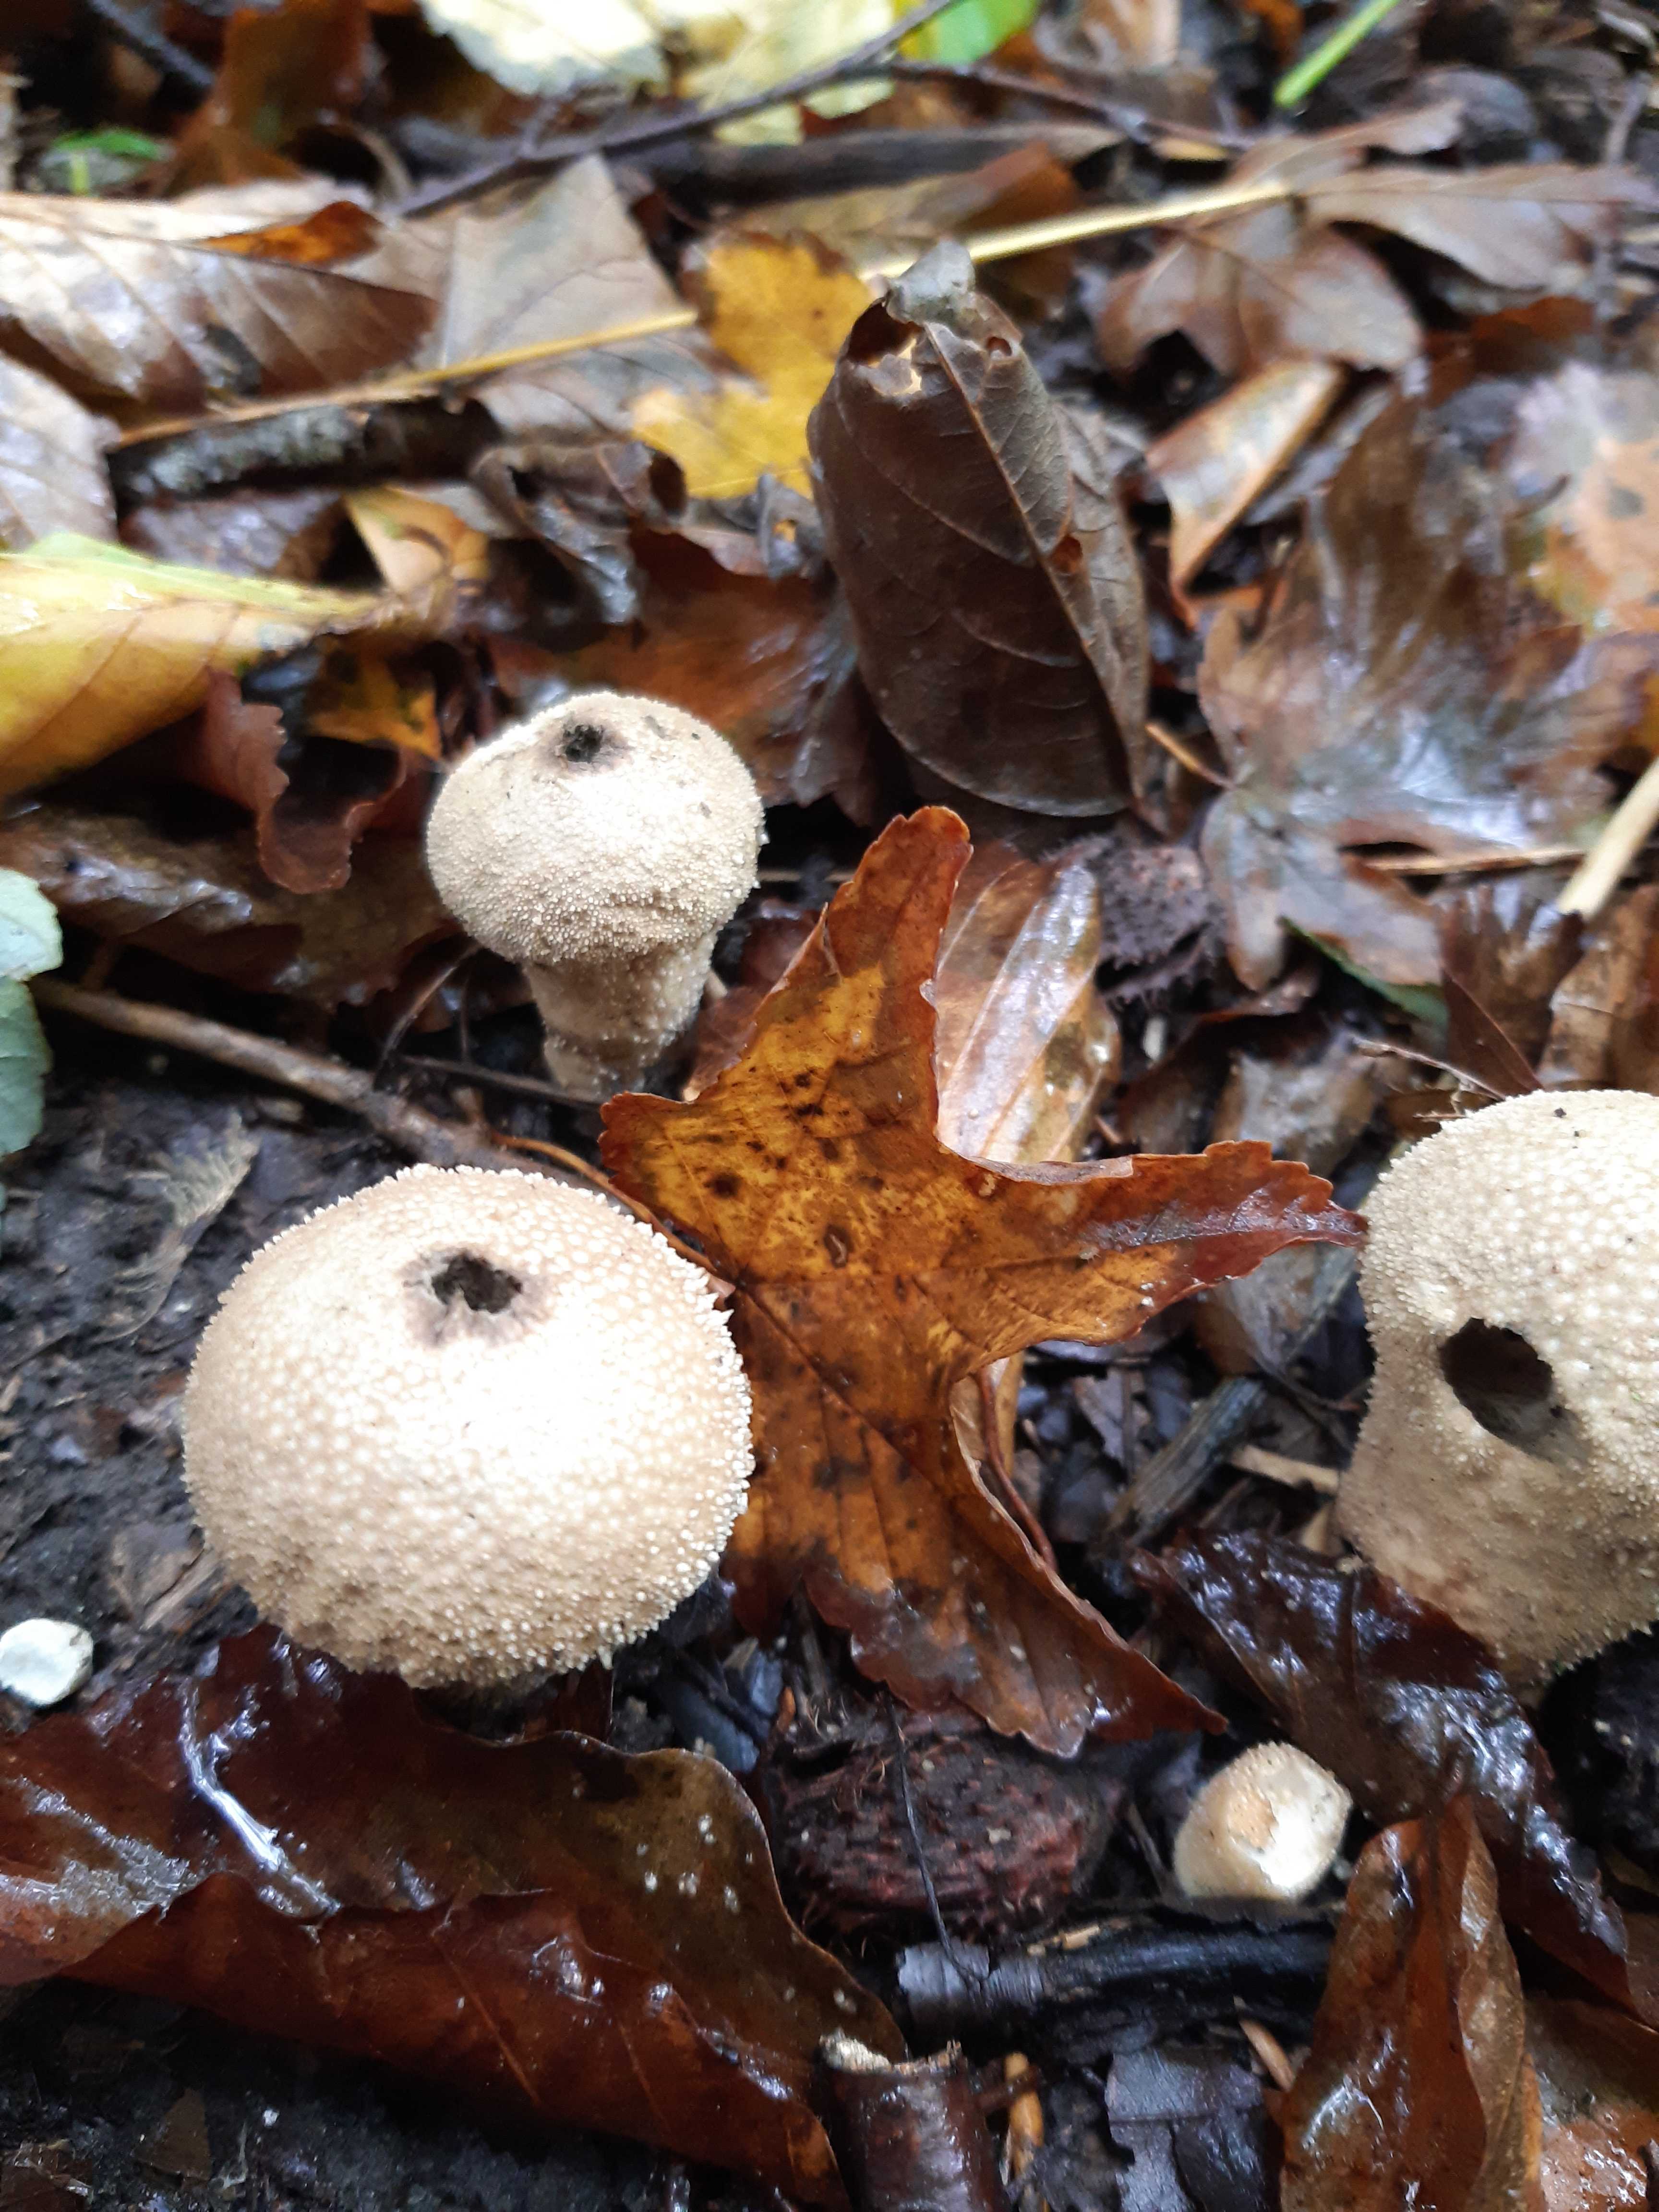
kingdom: Fungi
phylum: Basidiomycota
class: Agaricomycetes
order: Agaricales
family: Lycoperdaceae
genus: Lycoperdon
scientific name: Lycoperdon perlatum
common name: krystal-støvbold
